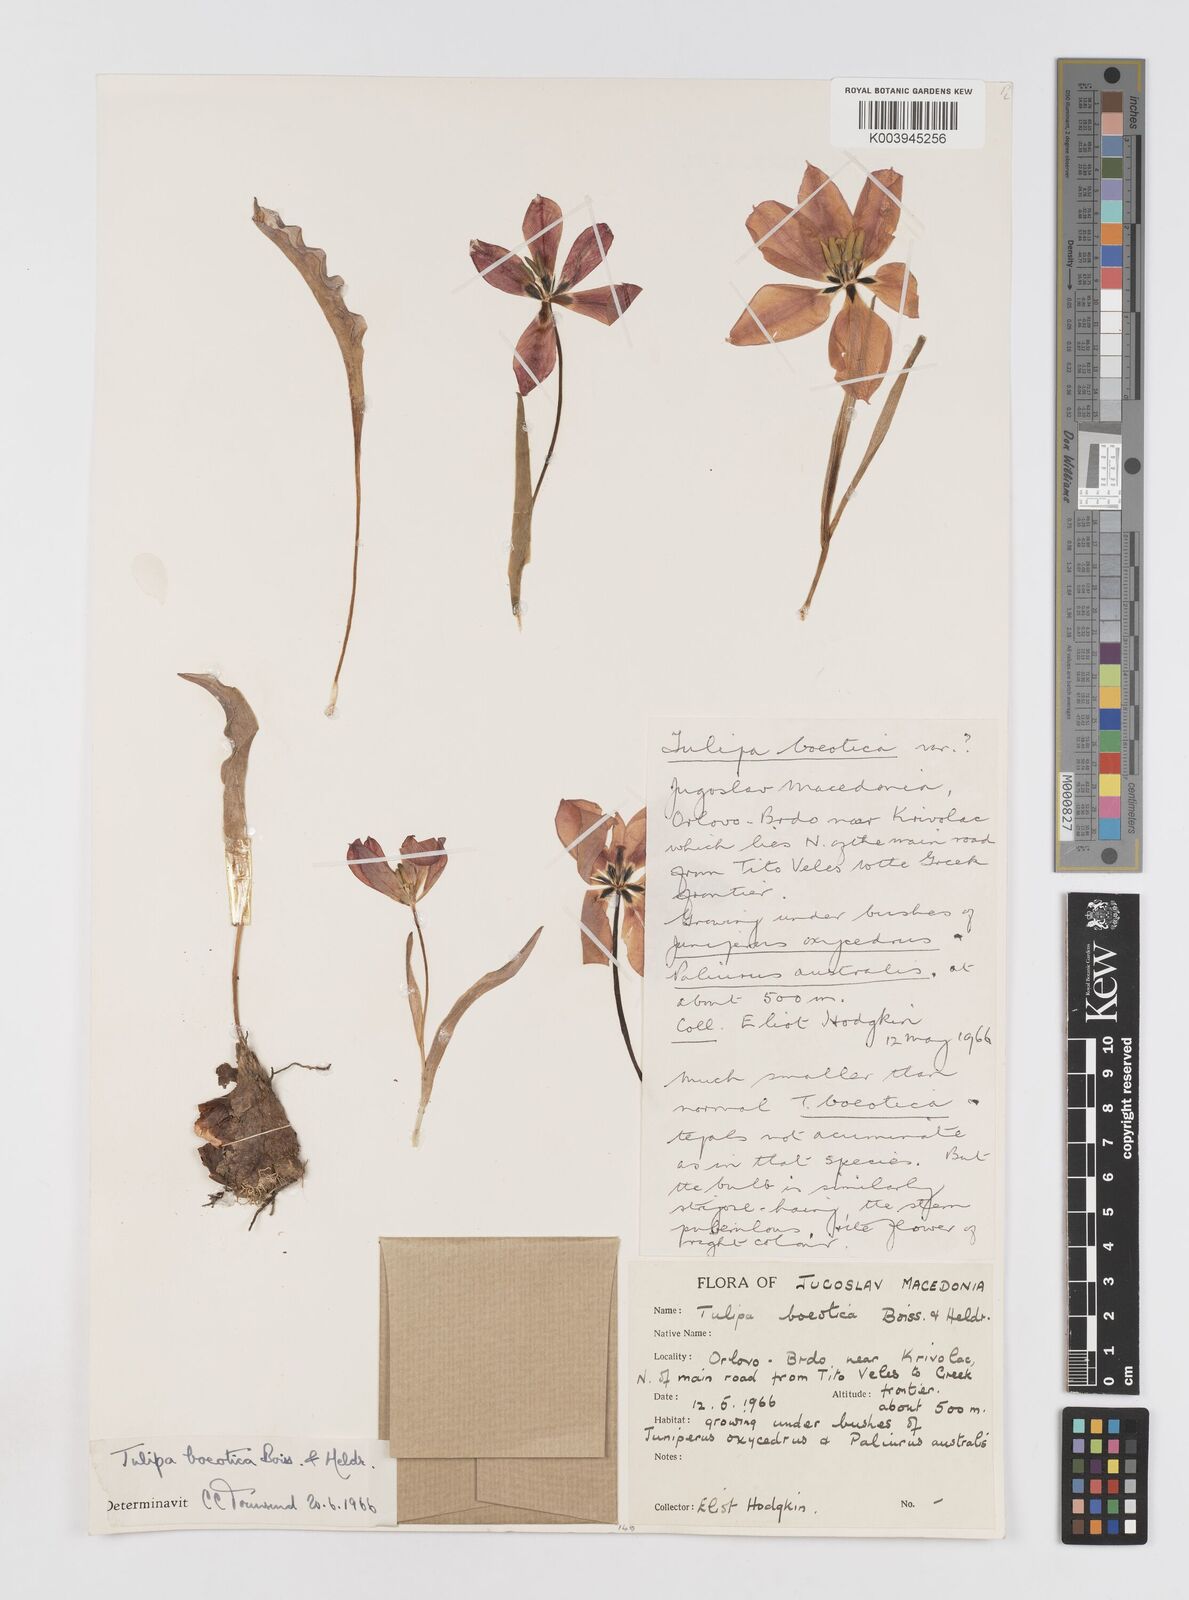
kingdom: Plantae
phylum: Tracheophyta
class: Liliopsida
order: Liliales
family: Liliaceae
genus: Tulipa
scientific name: Tulipa hungarica
